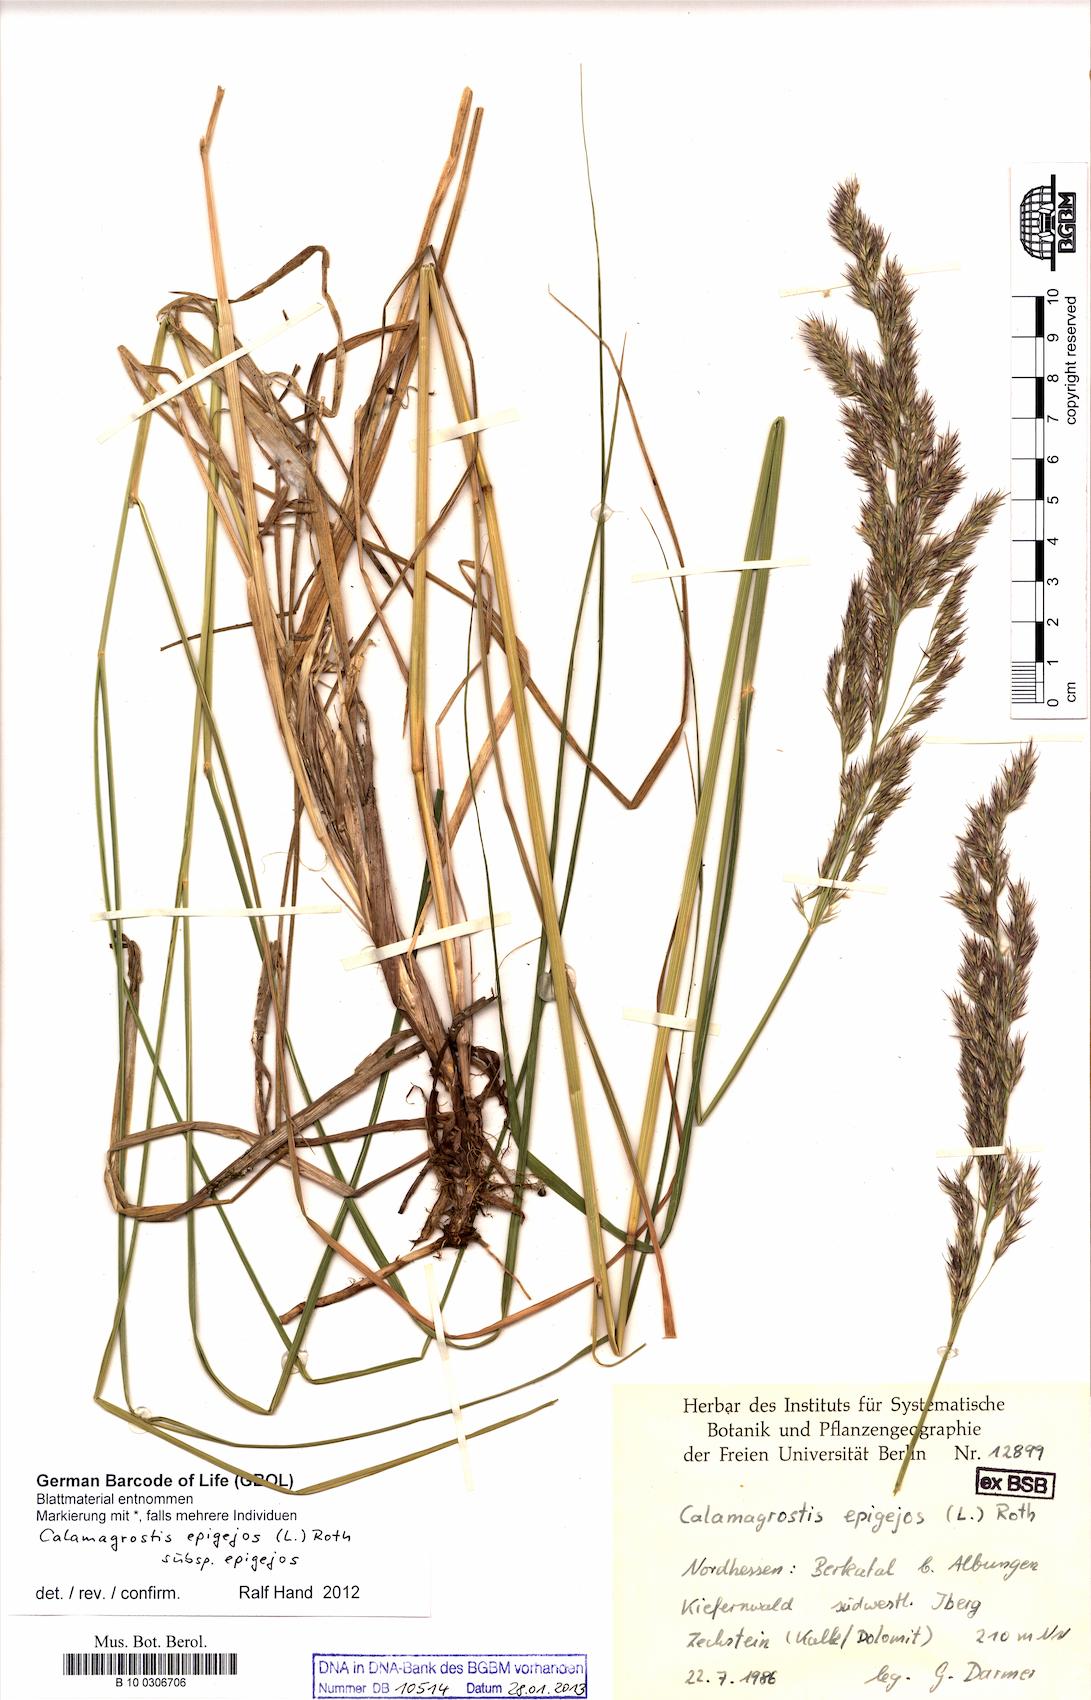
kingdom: Plantae
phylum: Tracheophyta
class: Liliopsida
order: Poales
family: Poaceae
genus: Calamagrostis
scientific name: Calamagrostis epigejos
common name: Wood small-reed
